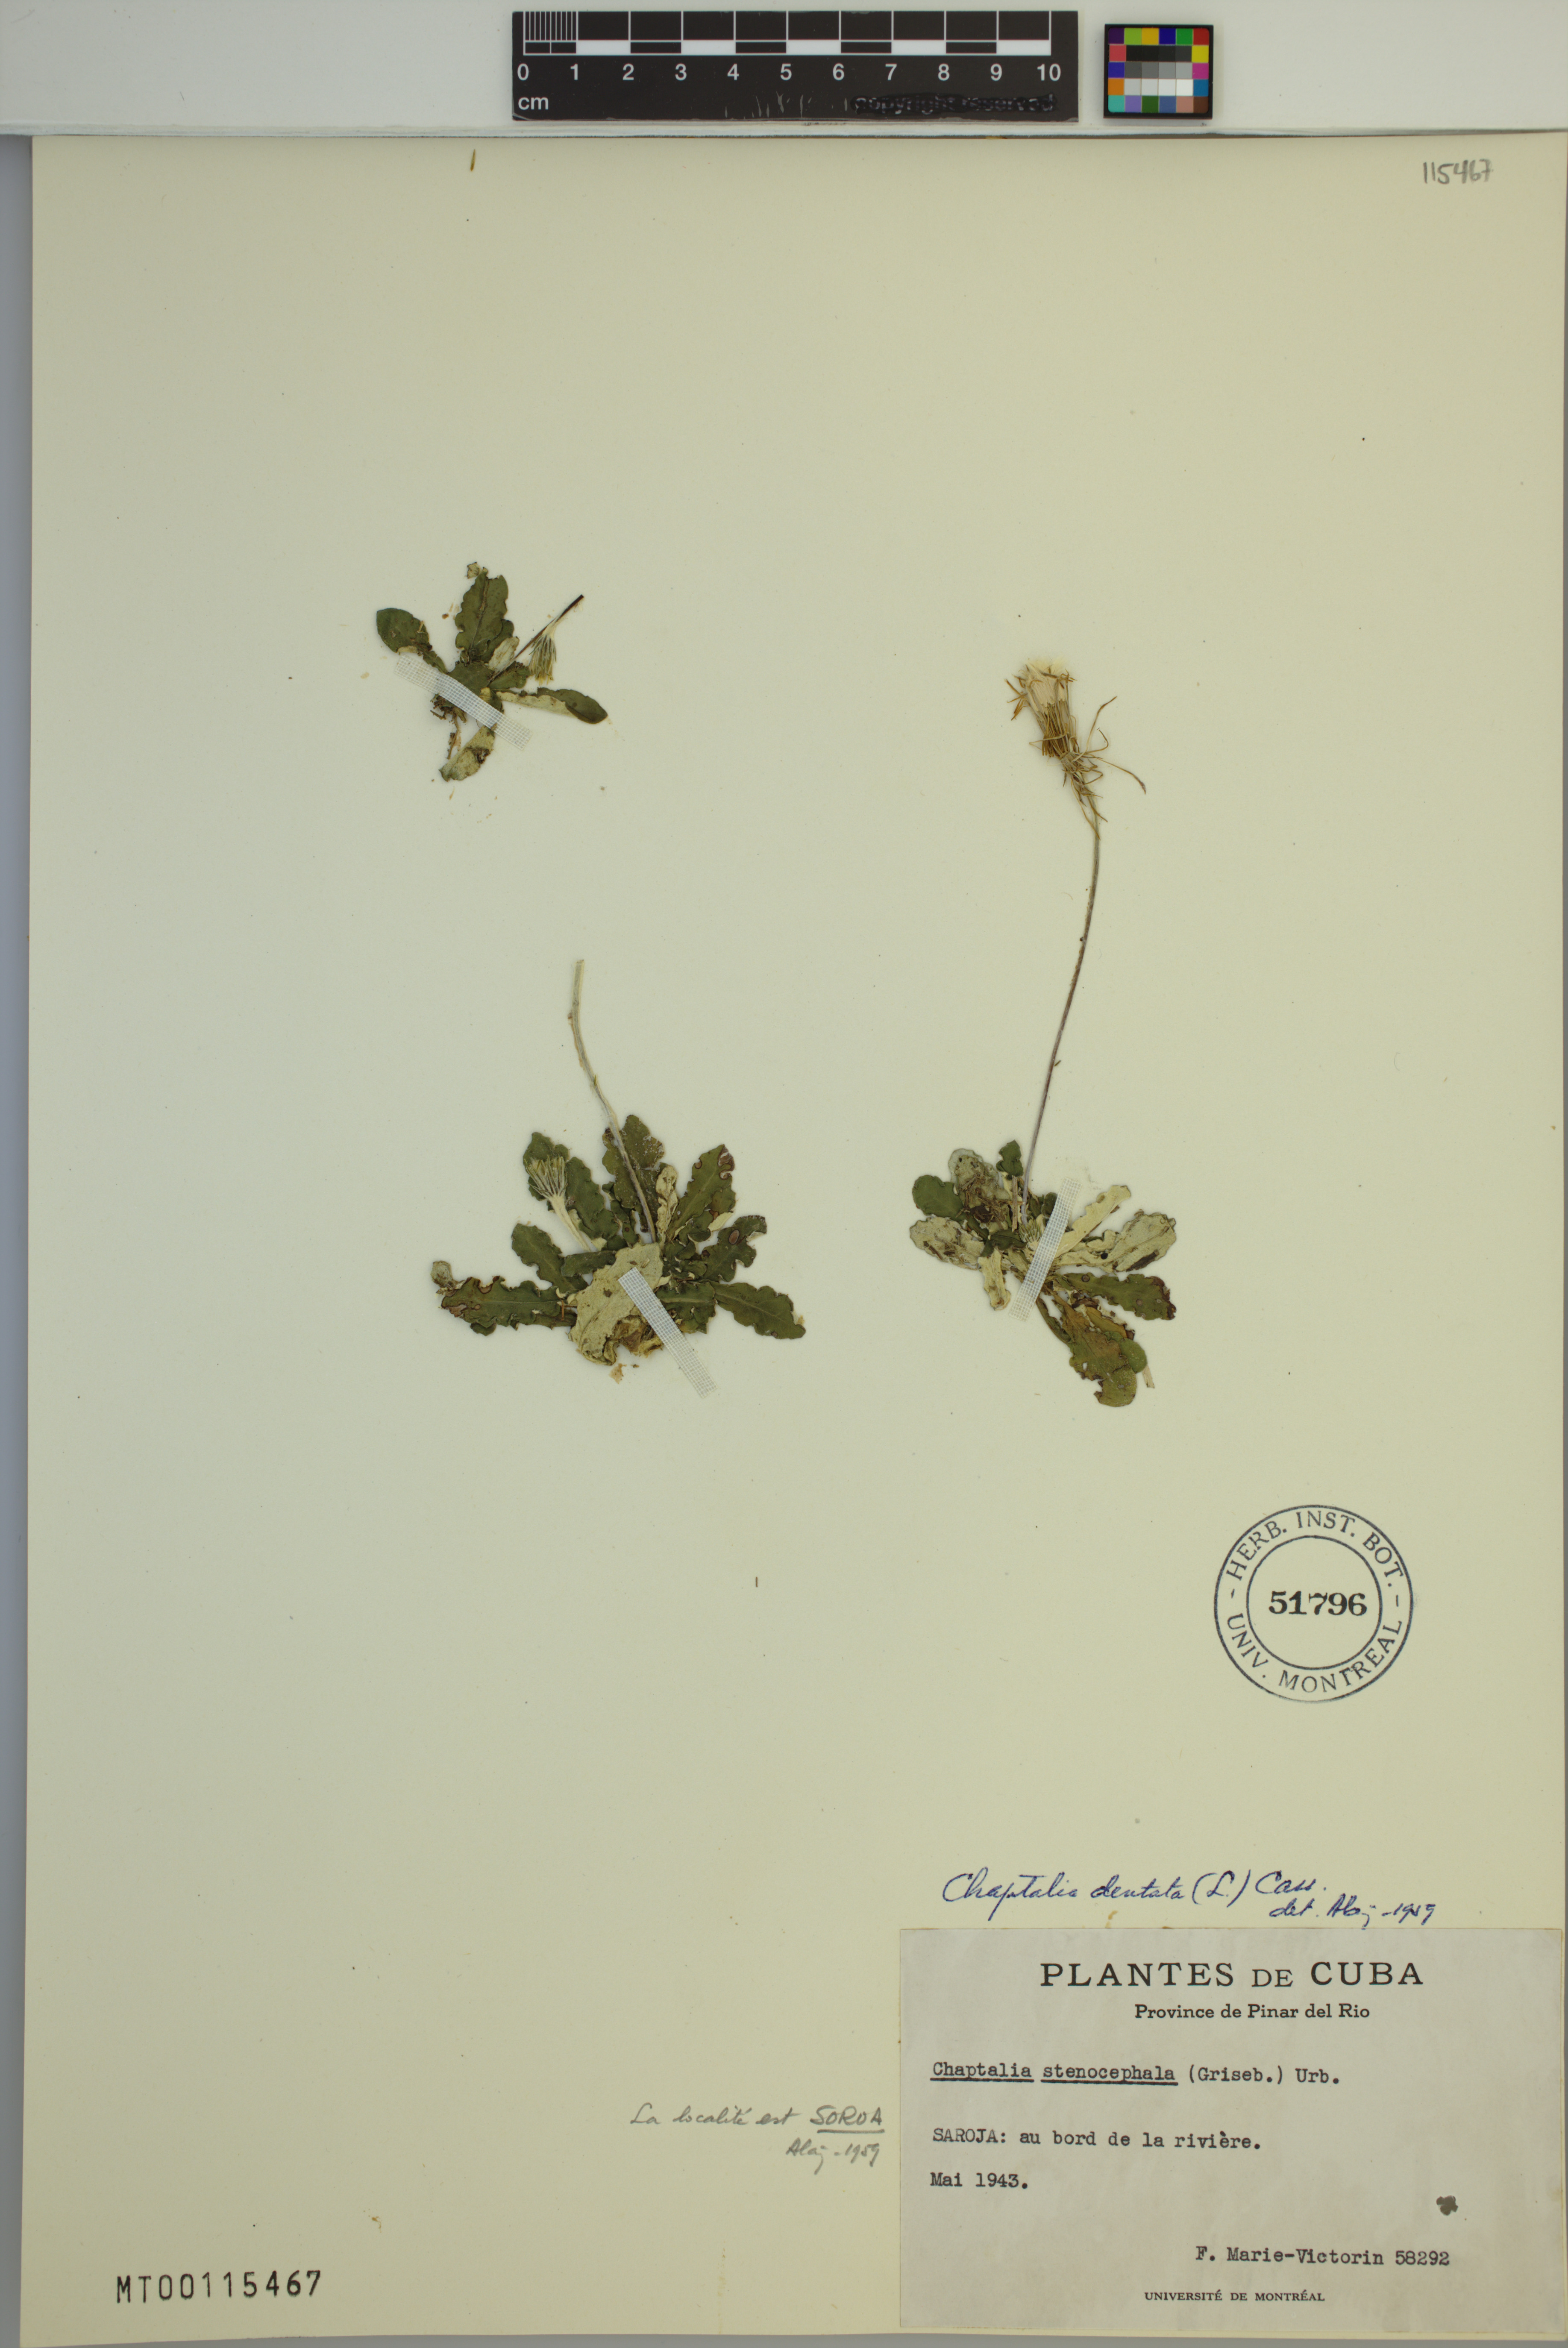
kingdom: Plantae
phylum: Tracheophyta
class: Magnoliopsida
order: Asterales
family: Asteraceae
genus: Chaptalia
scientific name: Chaptalia dentata
